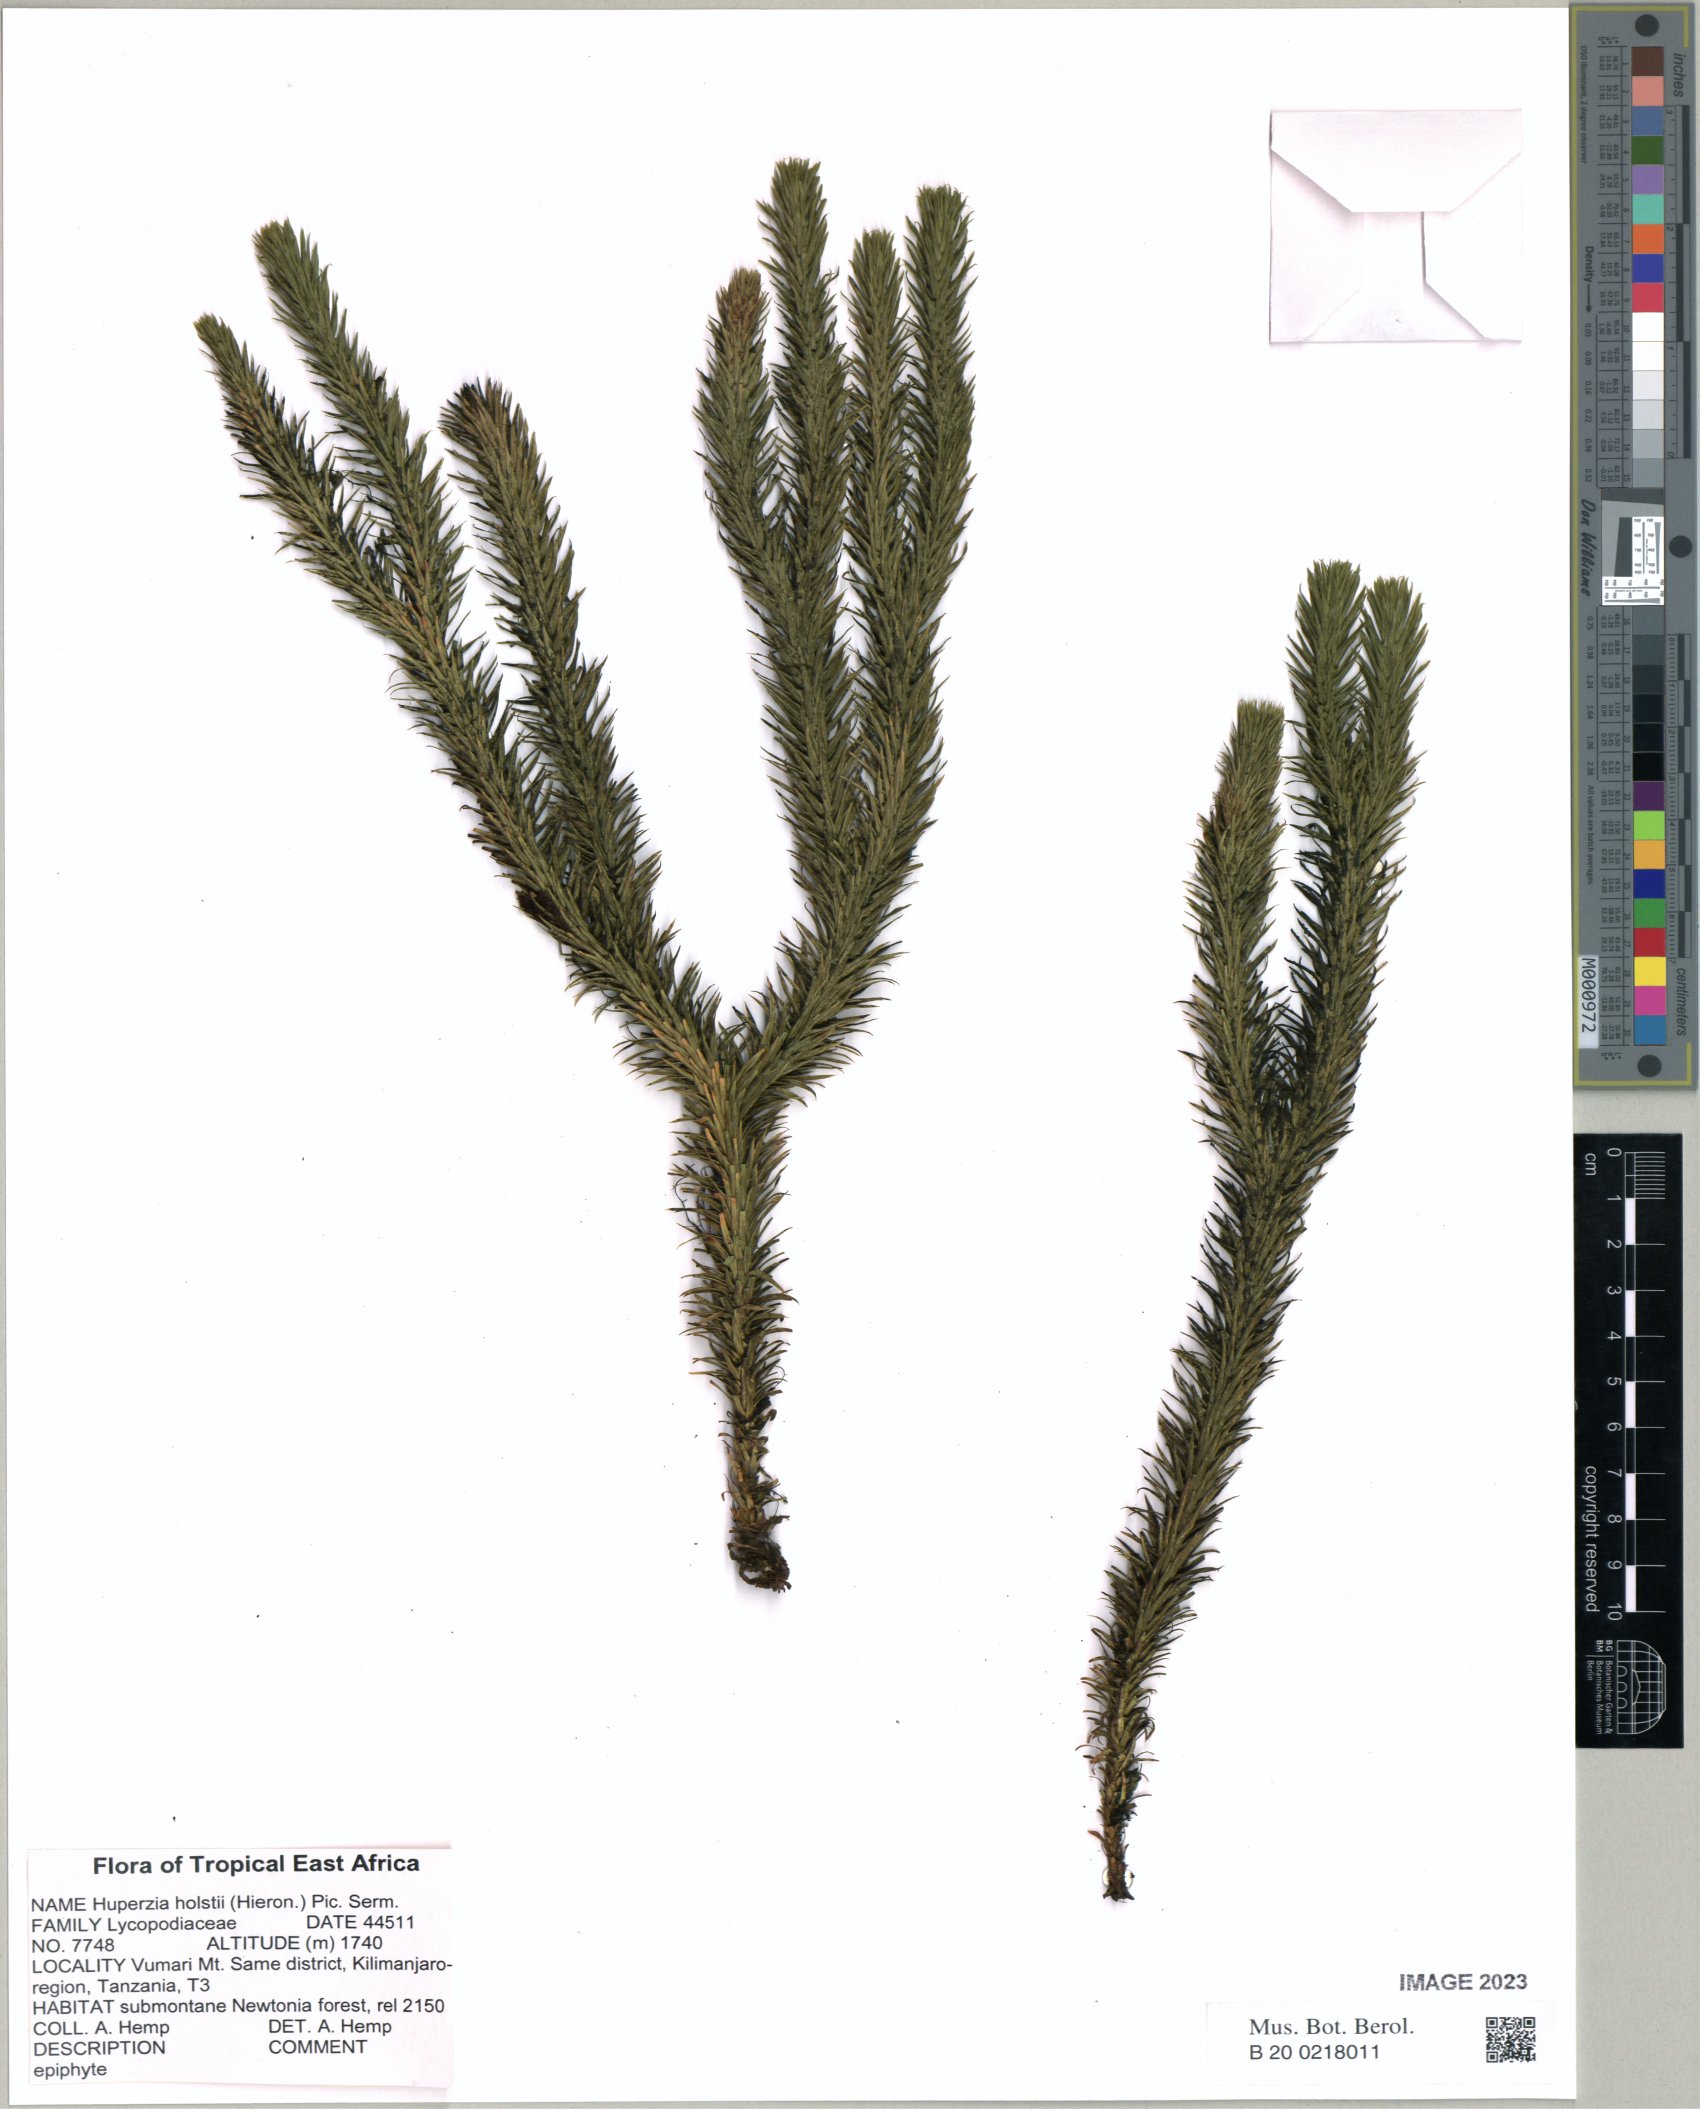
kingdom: Plantae
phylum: Tracheophyta
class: Lycopodiopsida
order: Lycopodiales
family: Lycopodiaceae
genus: Phlegmariurus
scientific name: Phlegmariurus holstii
